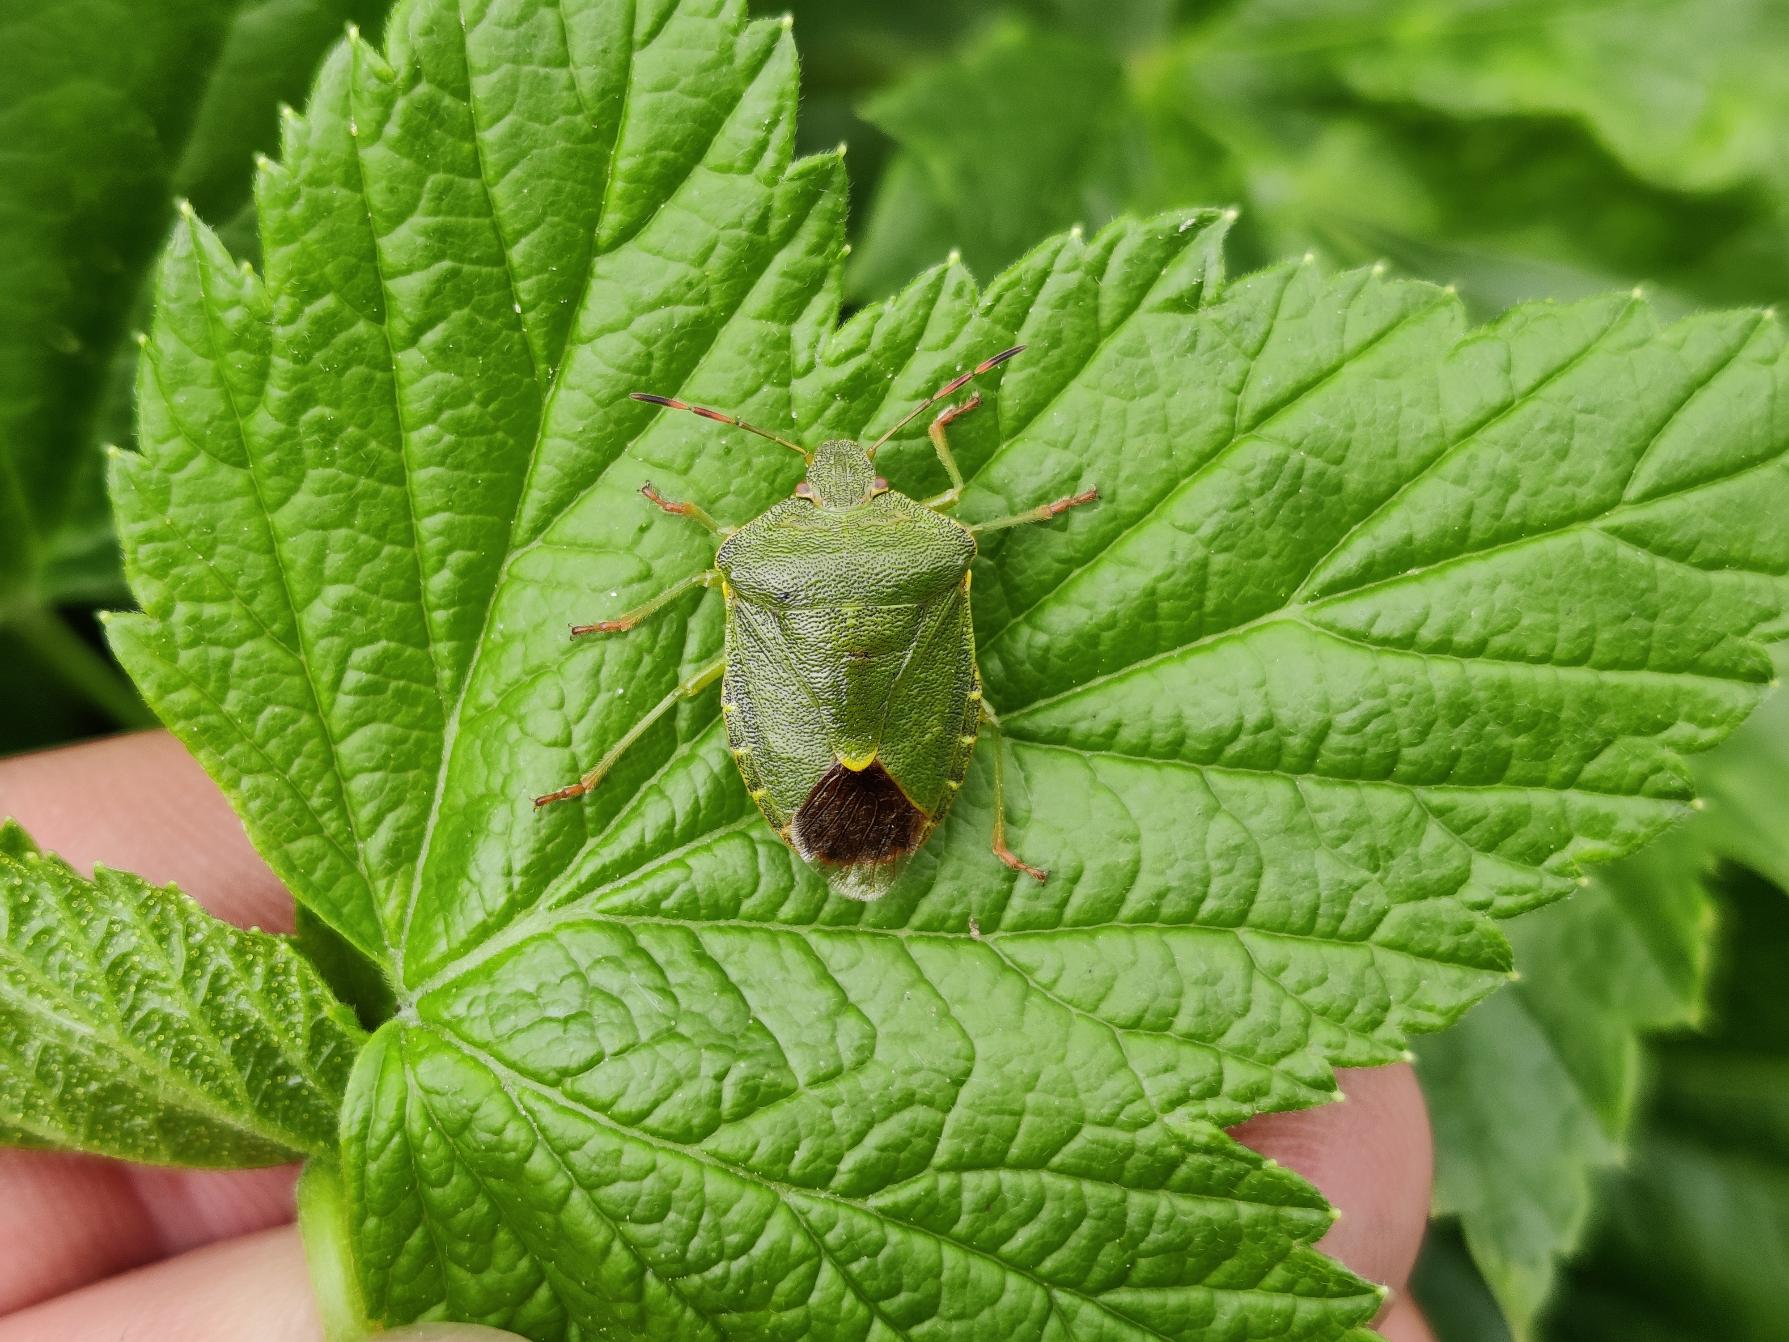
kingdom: Animalia
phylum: Arthropoda
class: Insecta
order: Hemiptera
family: Pentatomidae
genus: Palomena
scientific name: Palomena prasina
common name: Grøn bredtæge
